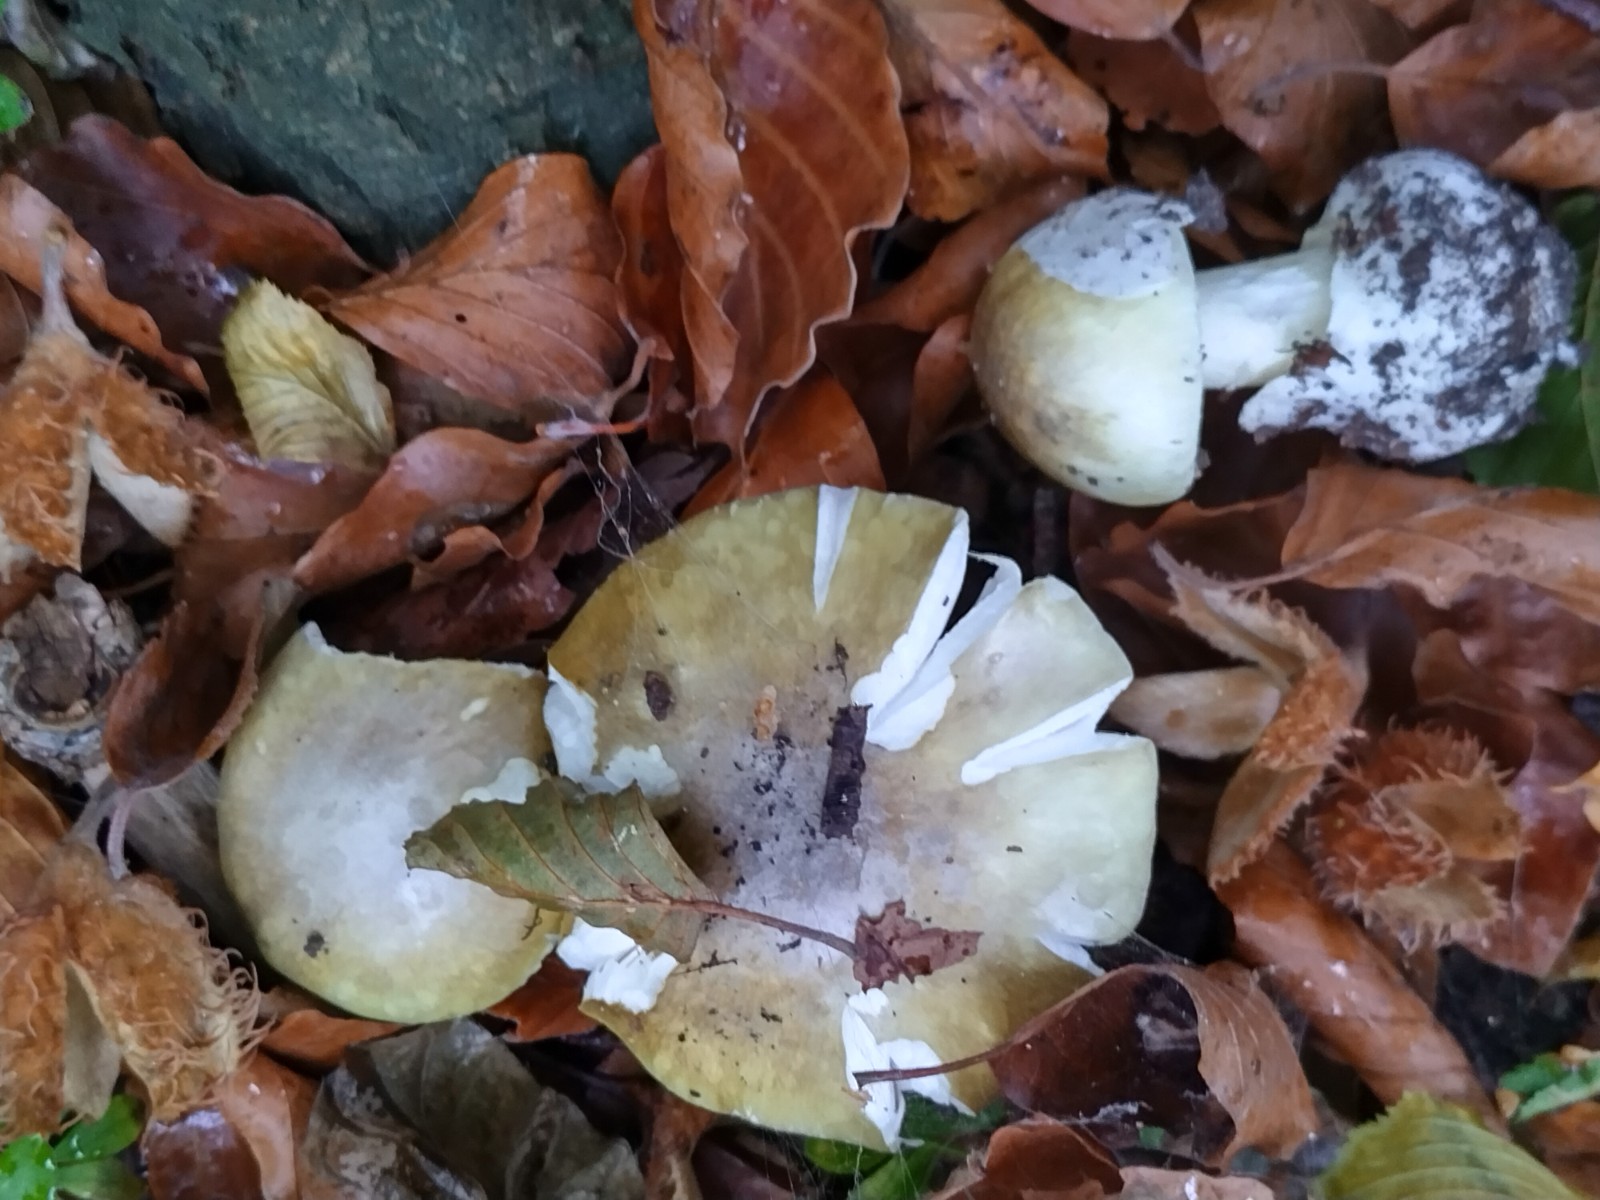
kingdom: Fungi
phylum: Basidiomycota
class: Agaricomycetes
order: Agaricales
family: Amanitaceae
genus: Amanita
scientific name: Amanita phalloides
